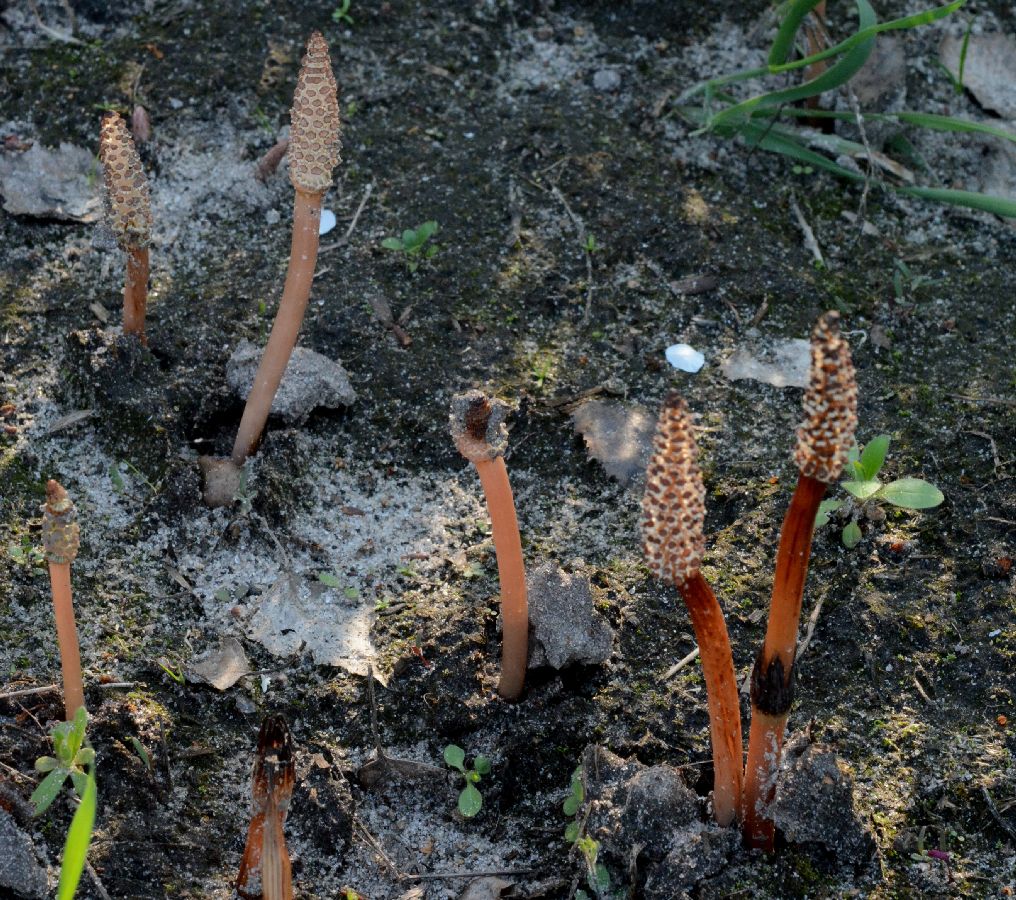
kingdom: Plantae
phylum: Tracheophyta
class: Polypodiopsida
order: Equisetales
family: Equisetaceae
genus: Equisetum
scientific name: Equisetum arvense
